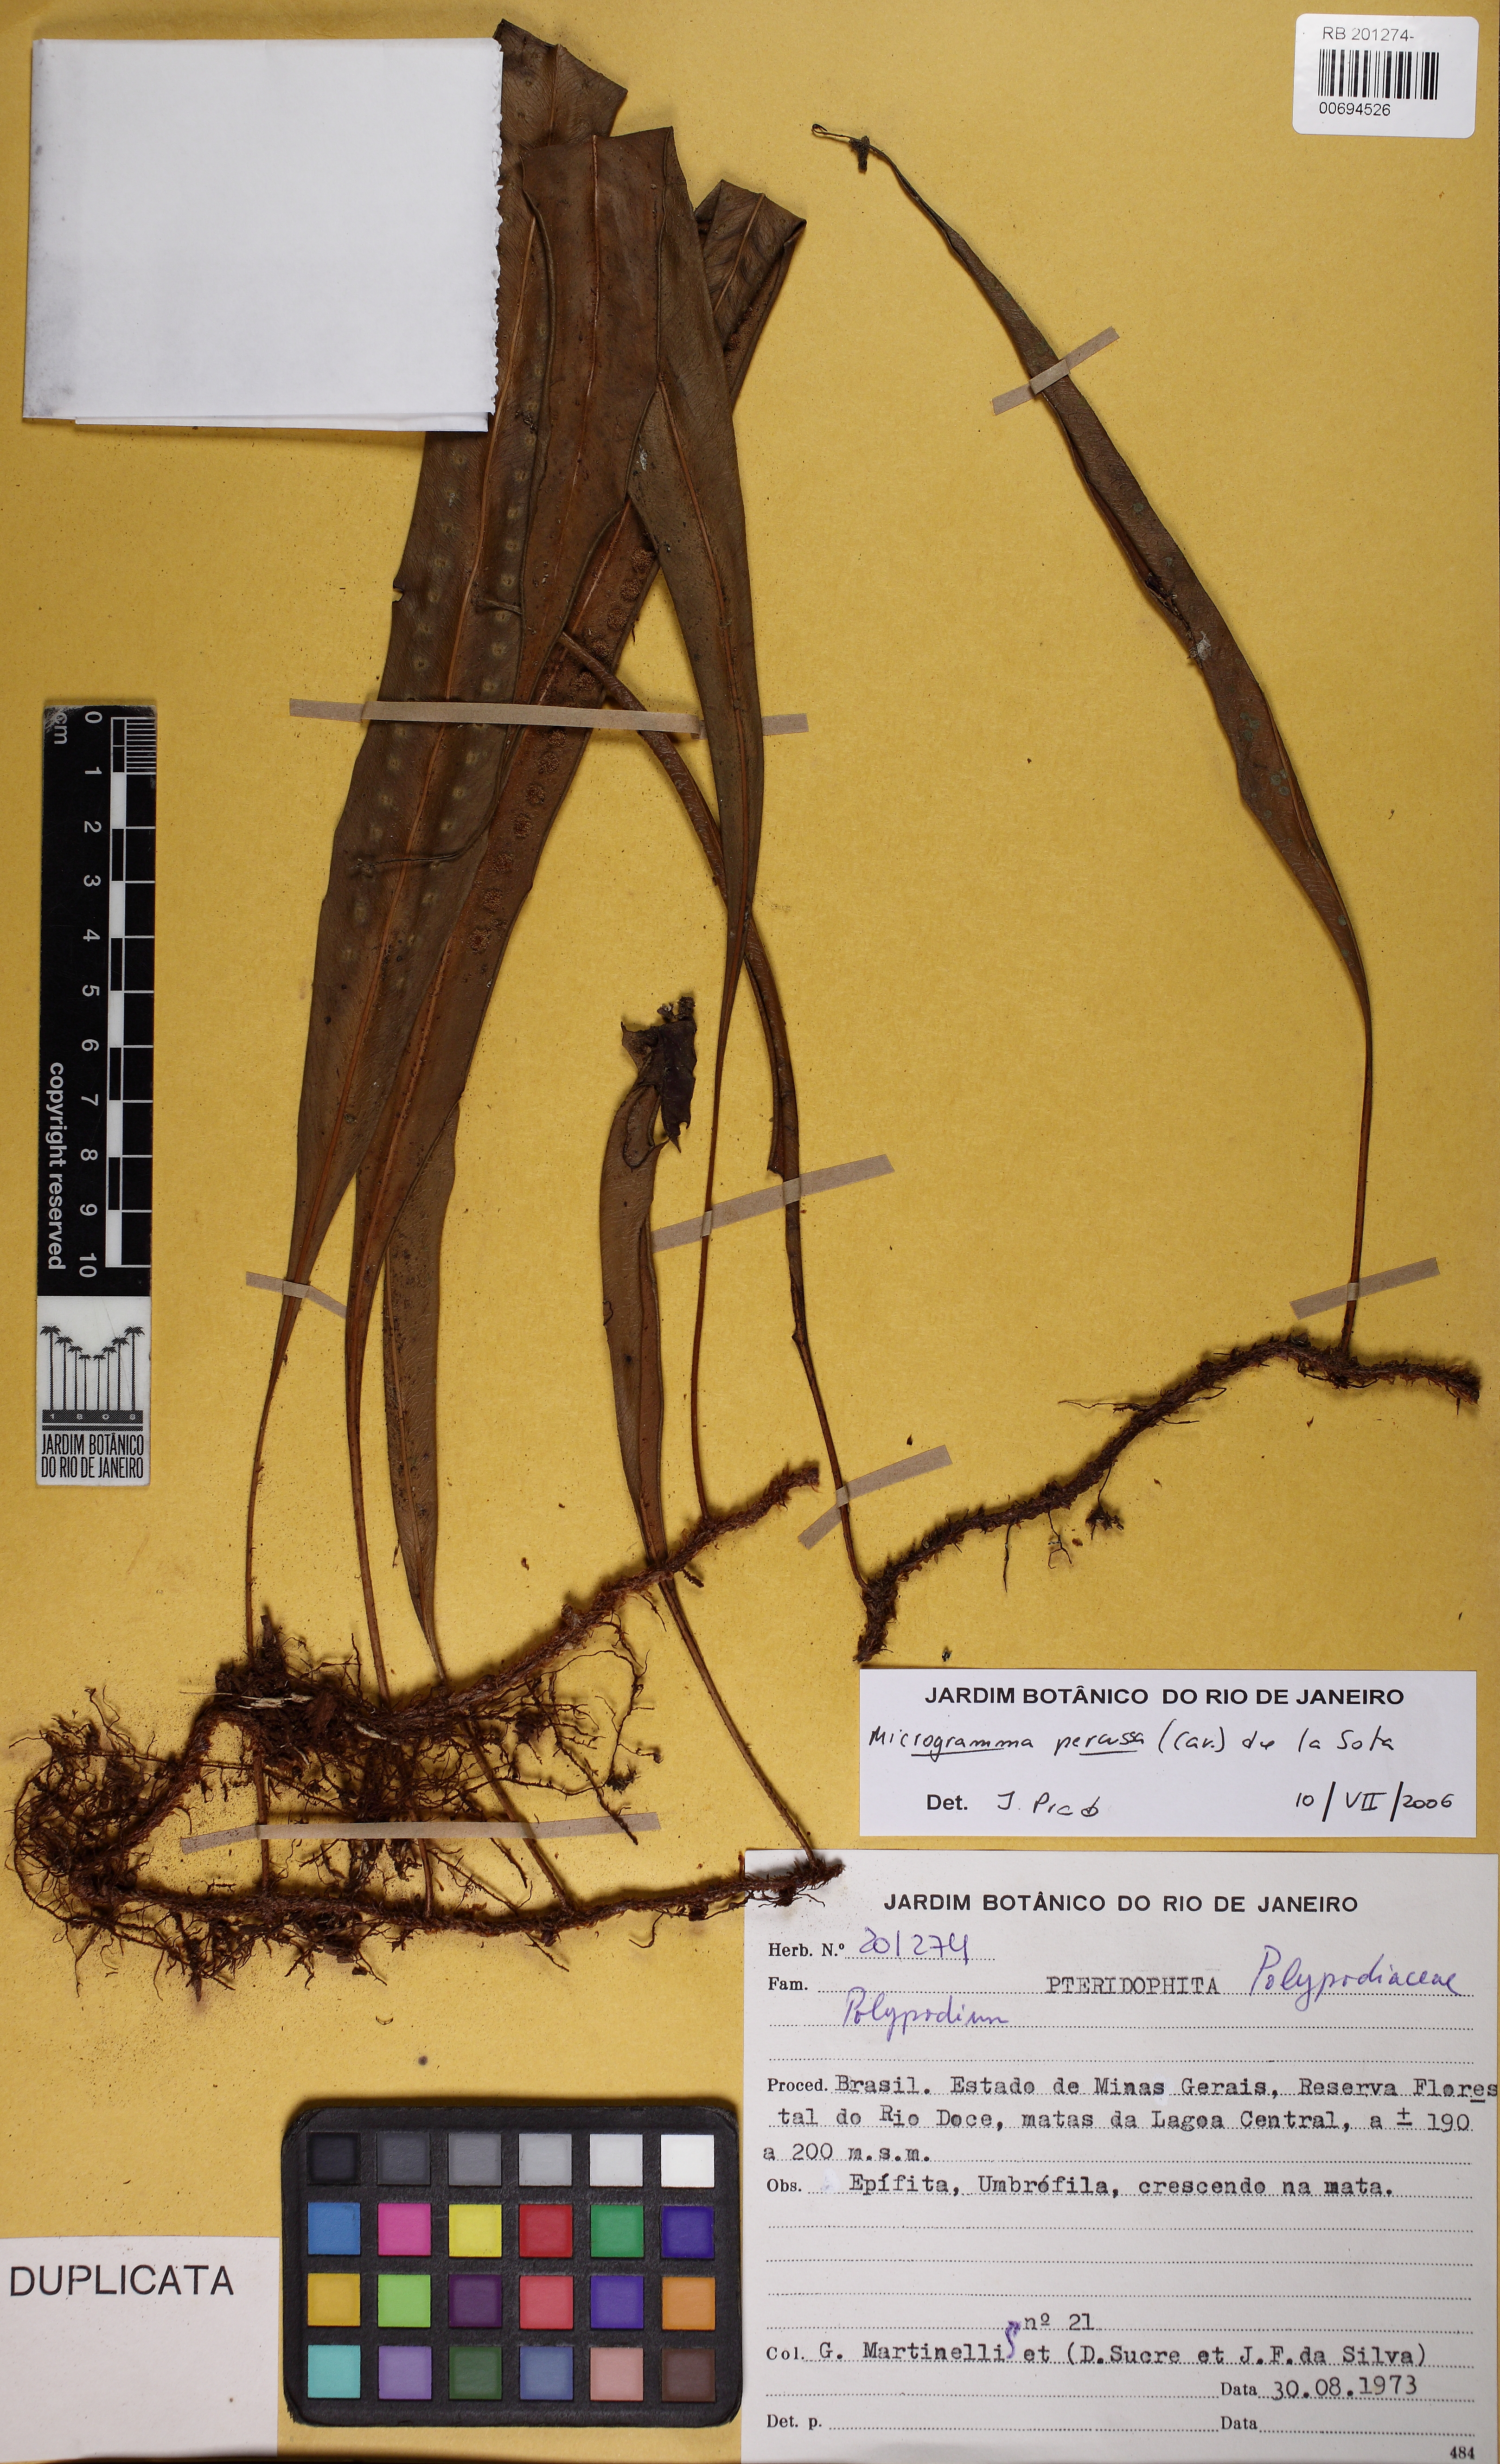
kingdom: Plantae
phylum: Tracheophyta
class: Polypodiopsida
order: Polypodiales
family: Polypodiaceae
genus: Microgramma
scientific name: Microgramma percussa
